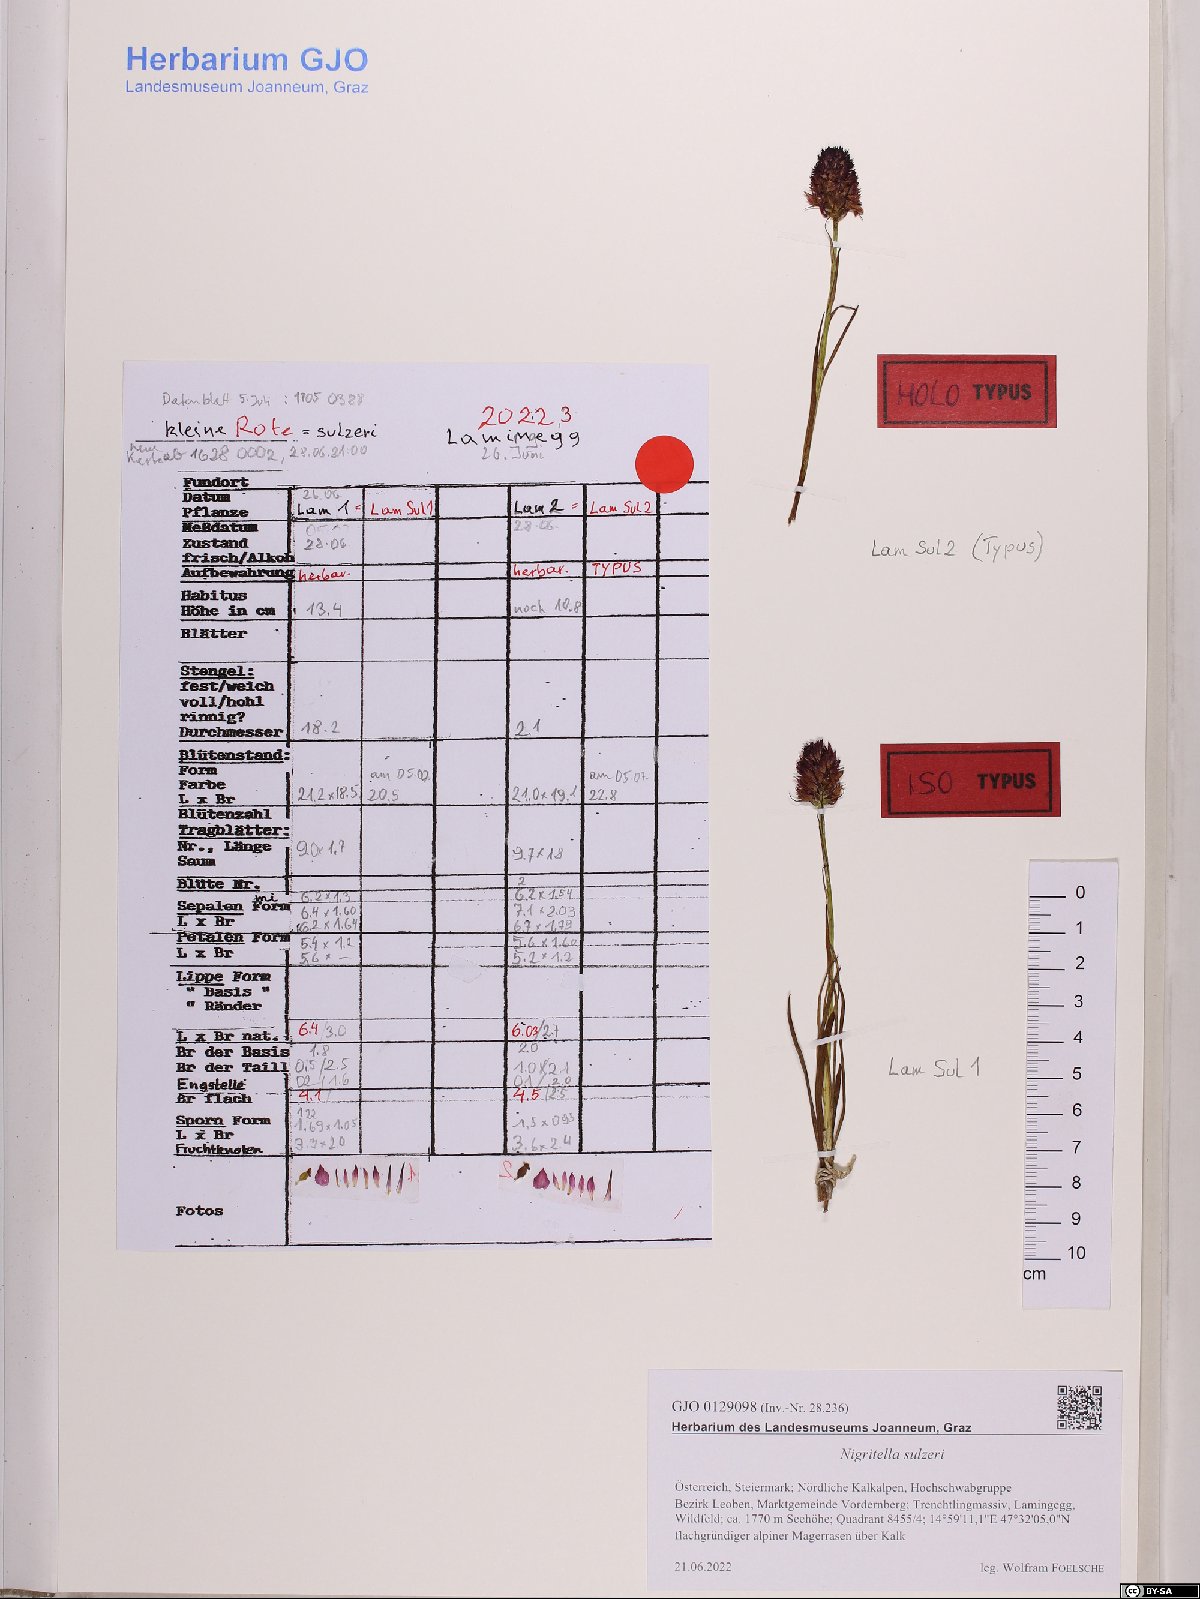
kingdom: Animalia
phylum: Mollusca
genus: Nigritella
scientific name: Nigritella
